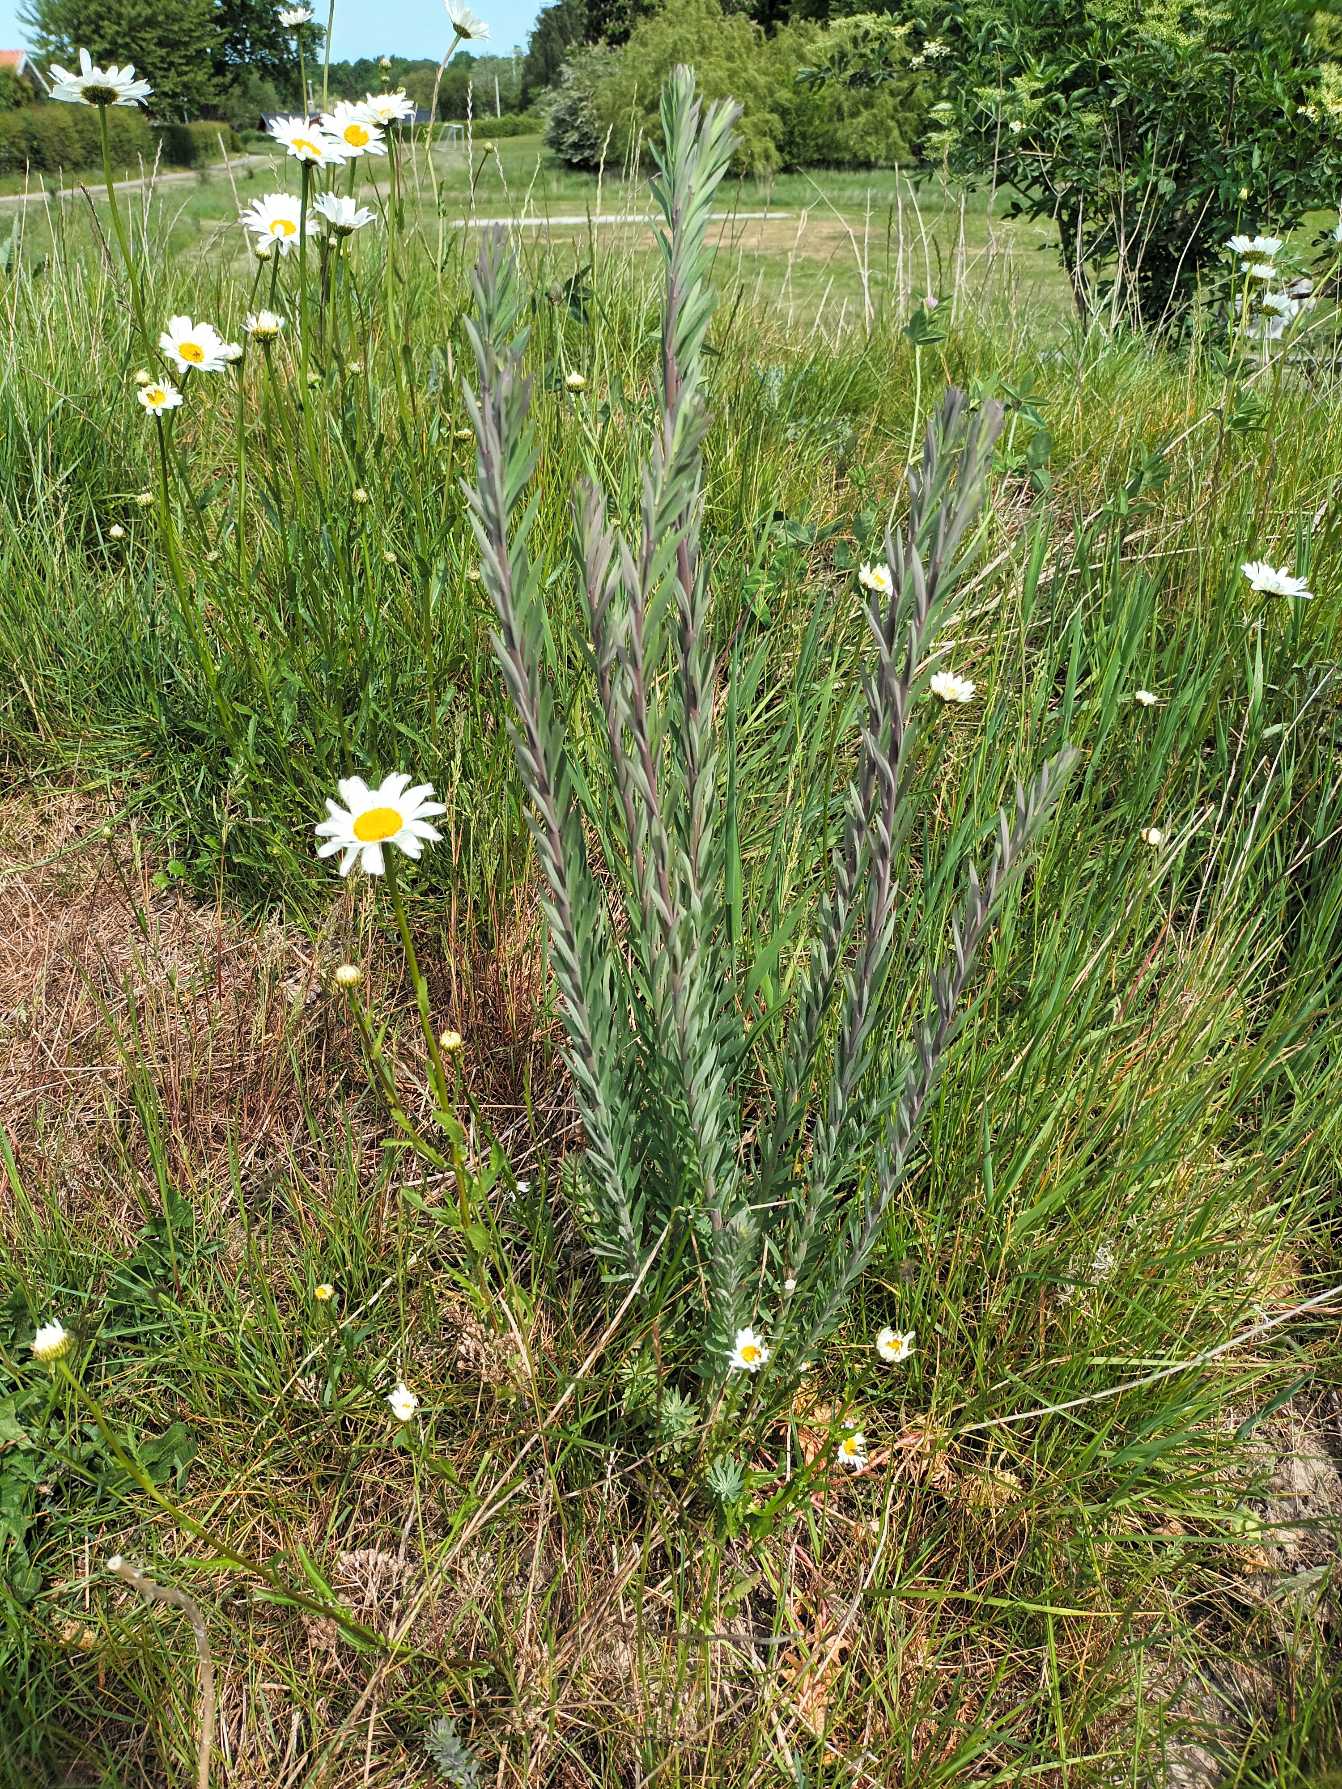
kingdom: Plantae
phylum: Tracheophyta
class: Magnoliopsida
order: Lamiales
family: Plantaginaceae
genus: Linaria
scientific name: Linaria purpurea
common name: Purpur-torskemund
